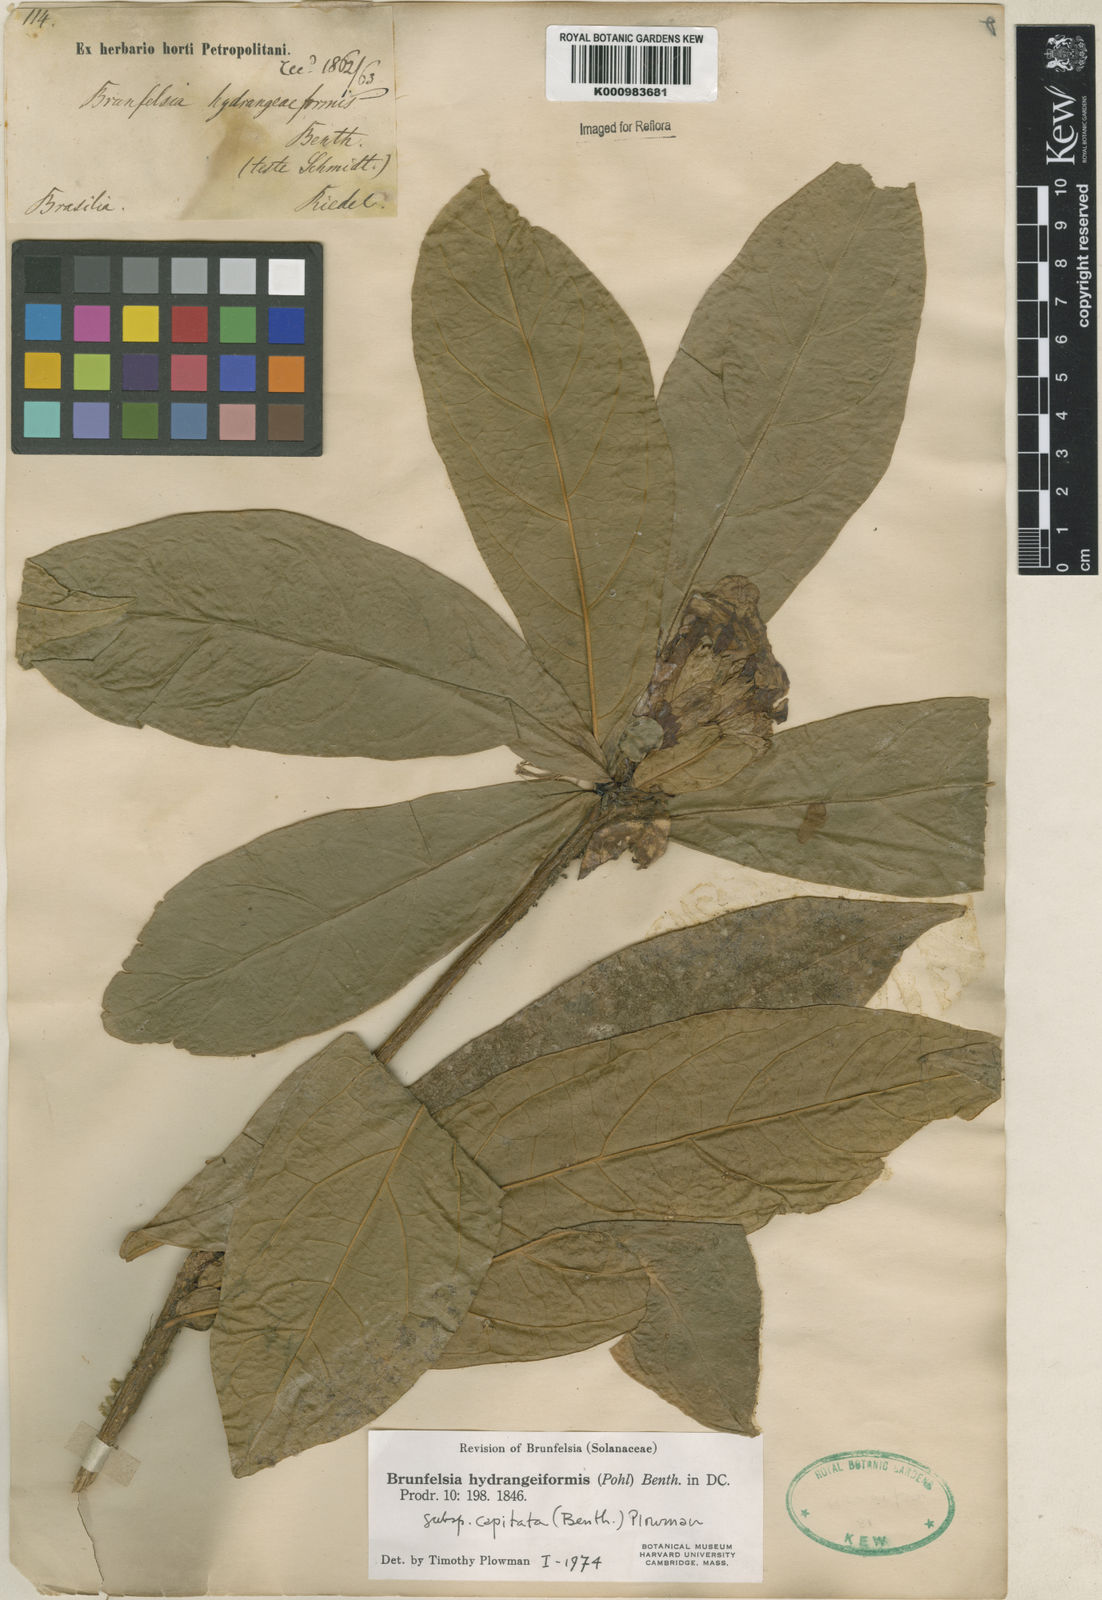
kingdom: Plantae
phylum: Tracheophyta
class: Magnoliopsida
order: Solanales
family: Solanaceae
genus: Solanum
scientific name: Solanum
